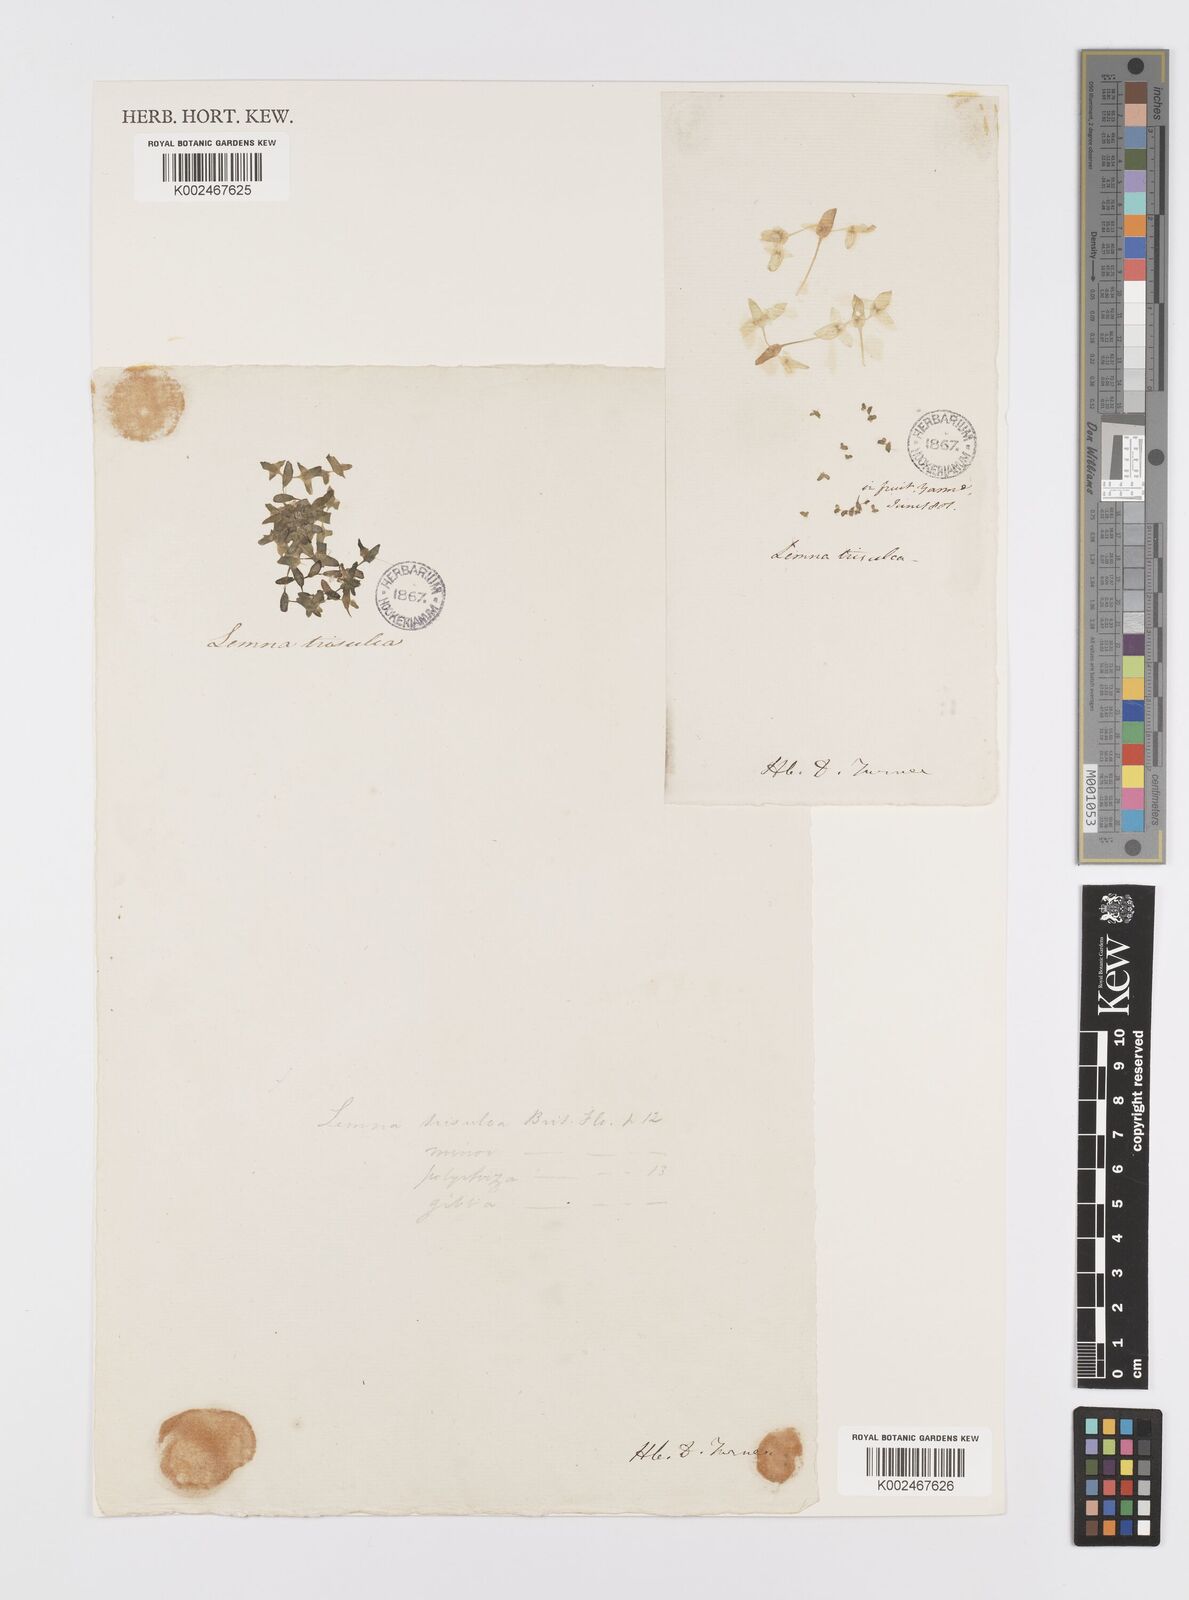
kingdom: Plantae
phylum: Tracheophyta
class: Liliopsida
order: Alismatales
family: Araceae
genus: Lemna
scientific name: Lemna trisulca
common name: Ivy-leaved duckweed
